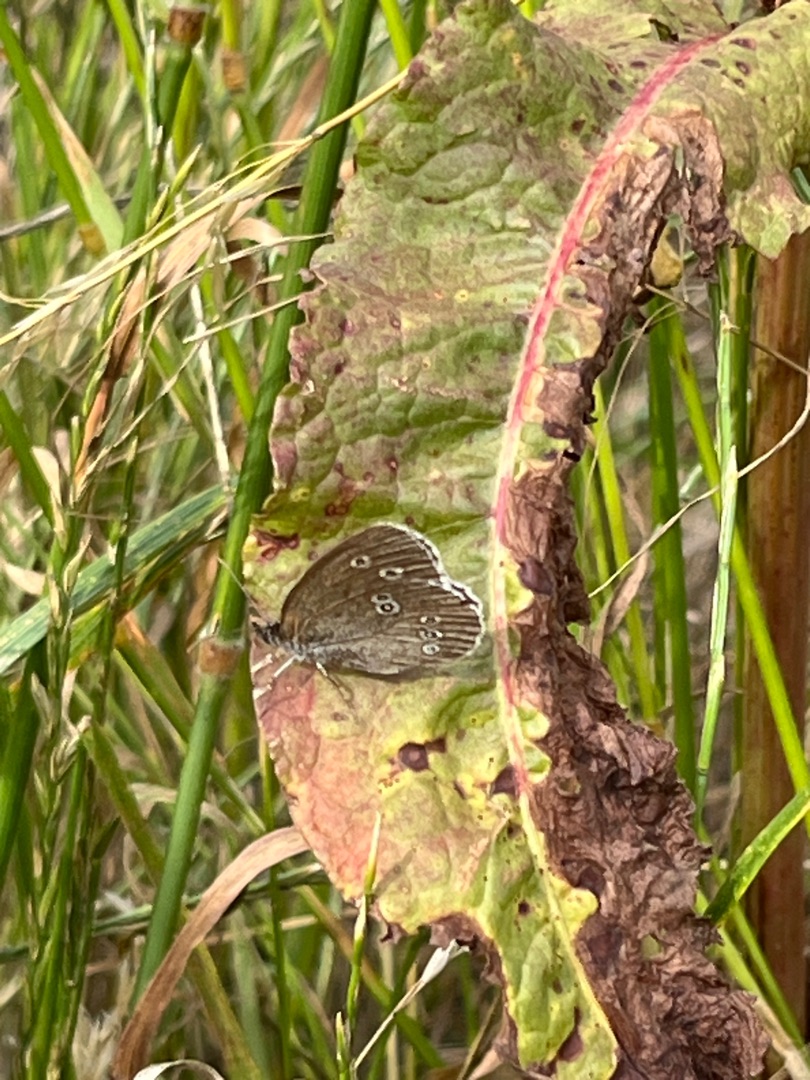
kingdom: Animalia
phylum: Arthropoda
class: Insecta
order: Lepidoptera
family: Nymphalidae
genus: Aphantopus
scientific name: Aphantopus hyperantus
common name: Engrandøje
